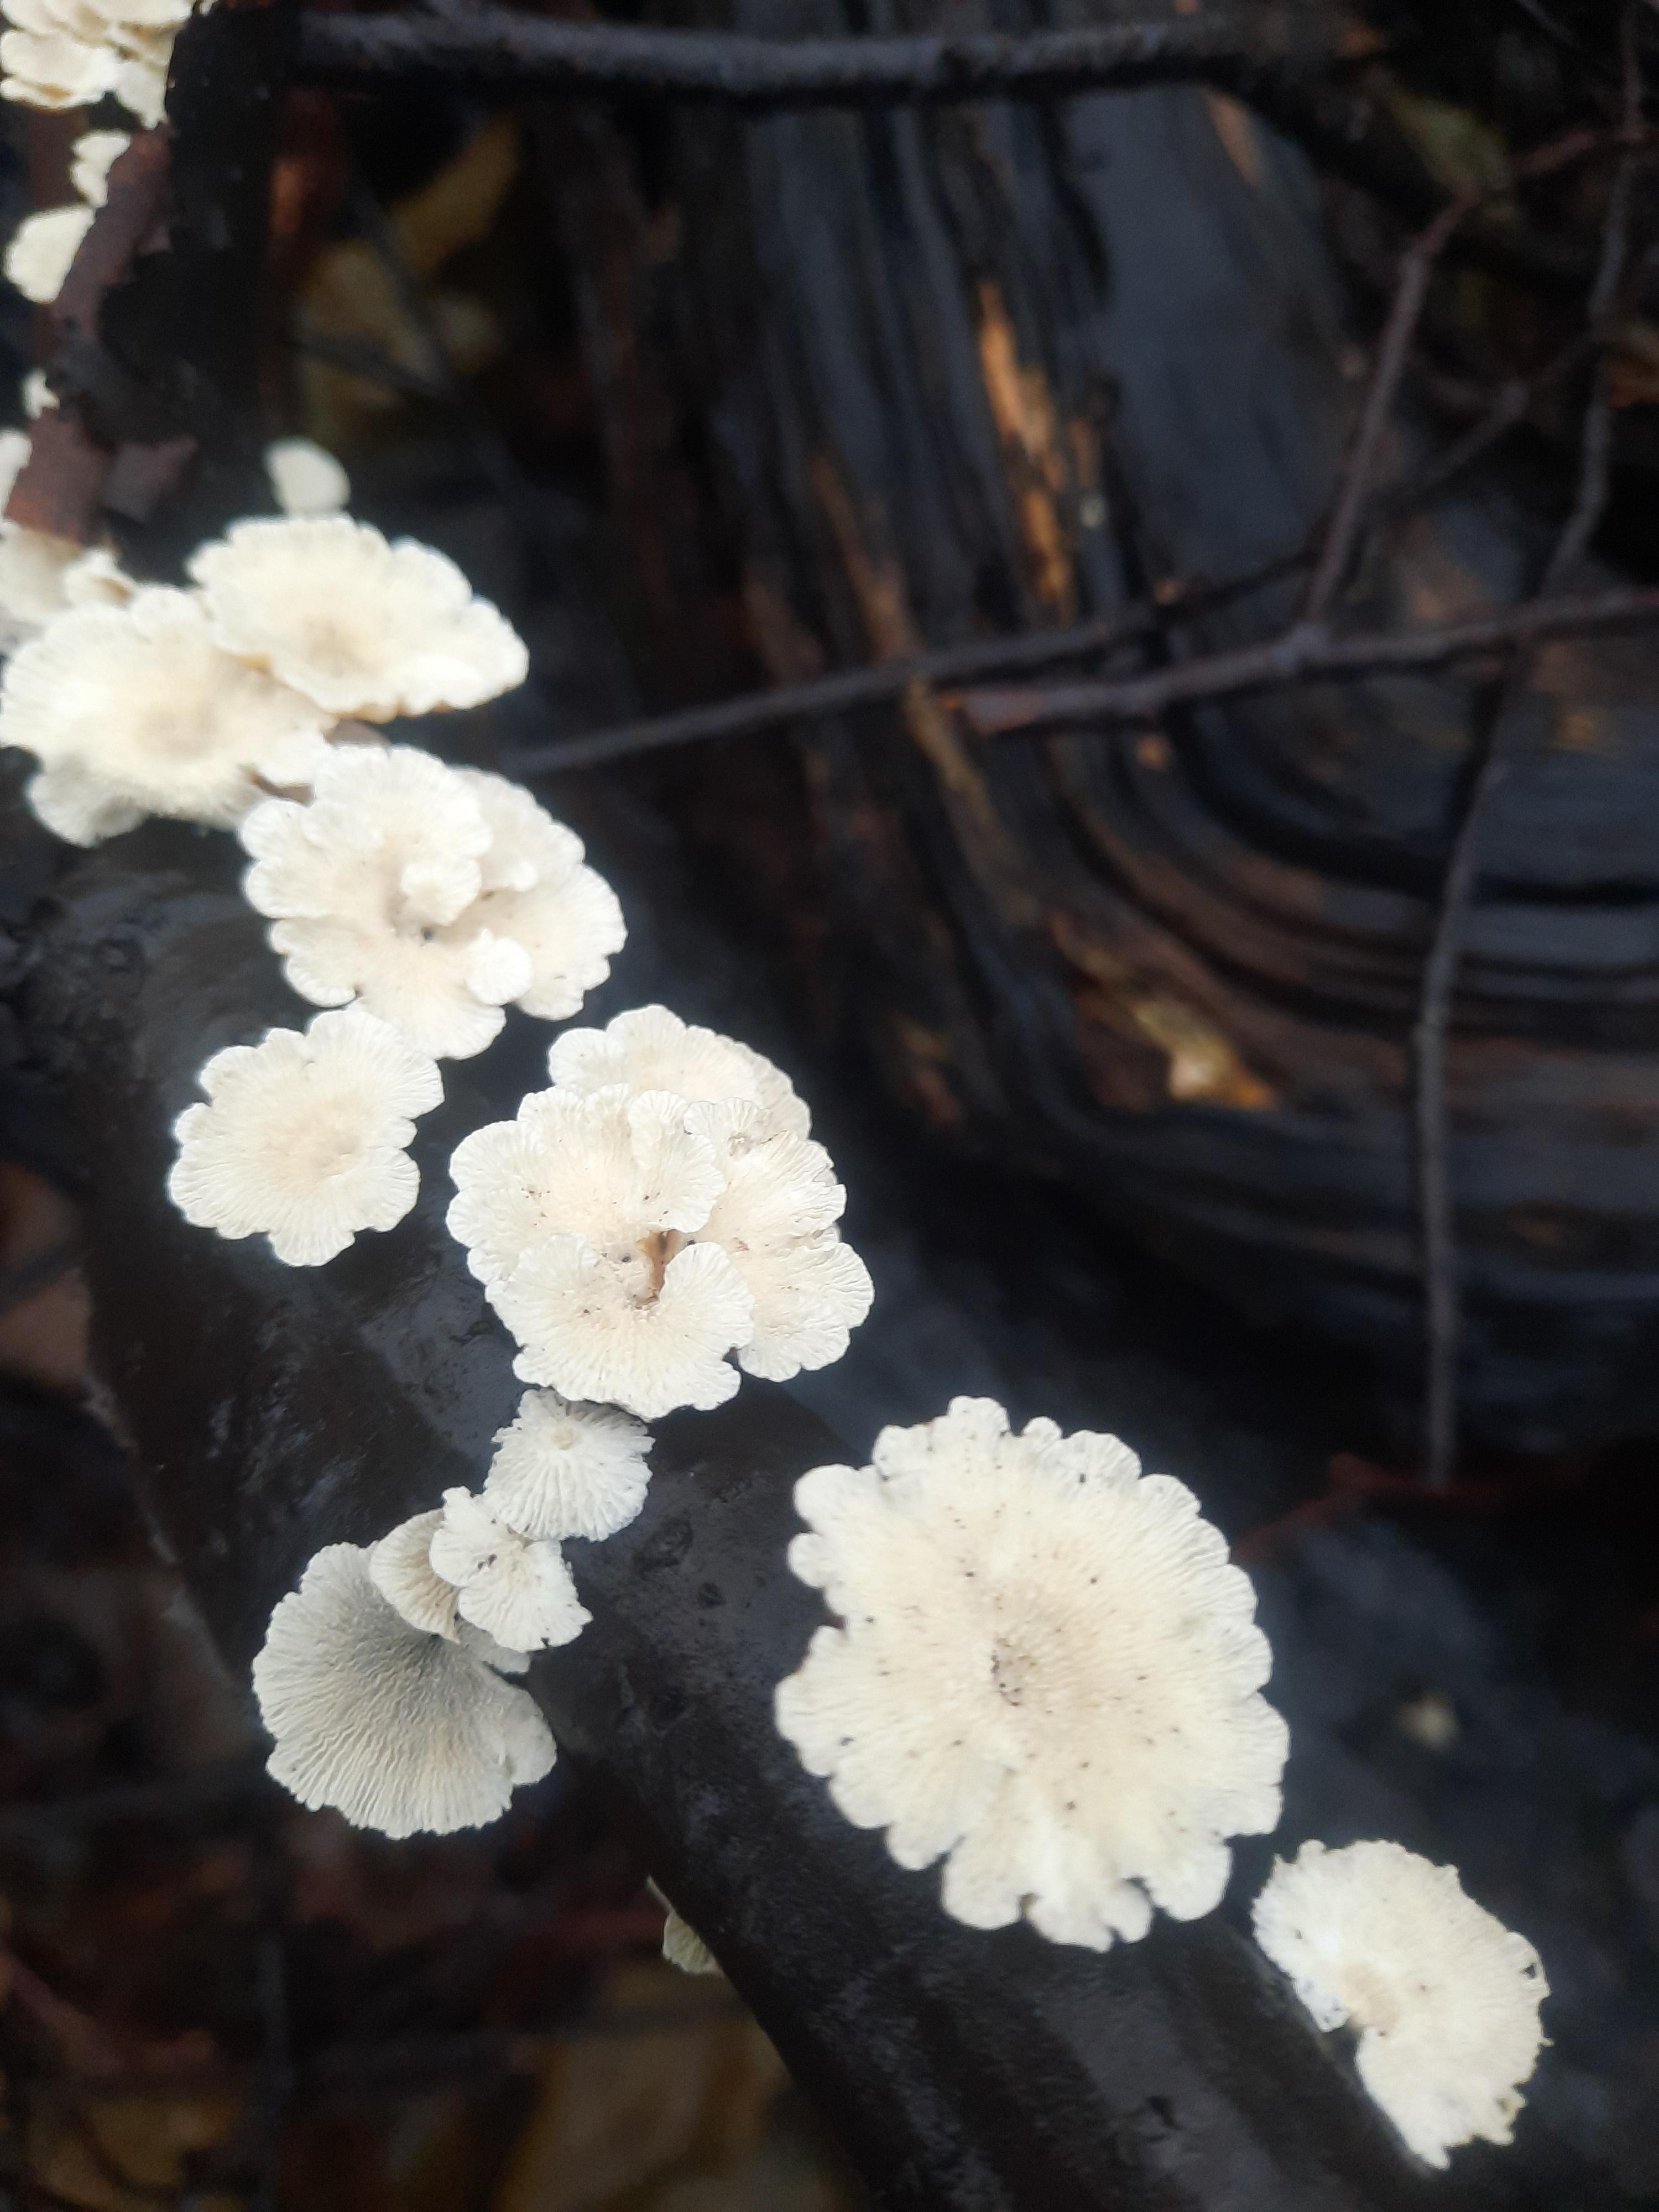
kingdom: Fungi
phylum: Basidiomycota
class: Agaricomycetes
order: Amylocorticiales
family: Amylocorticiaceae
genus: Plicaturopsis
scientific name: Plicaturopsis crispa
